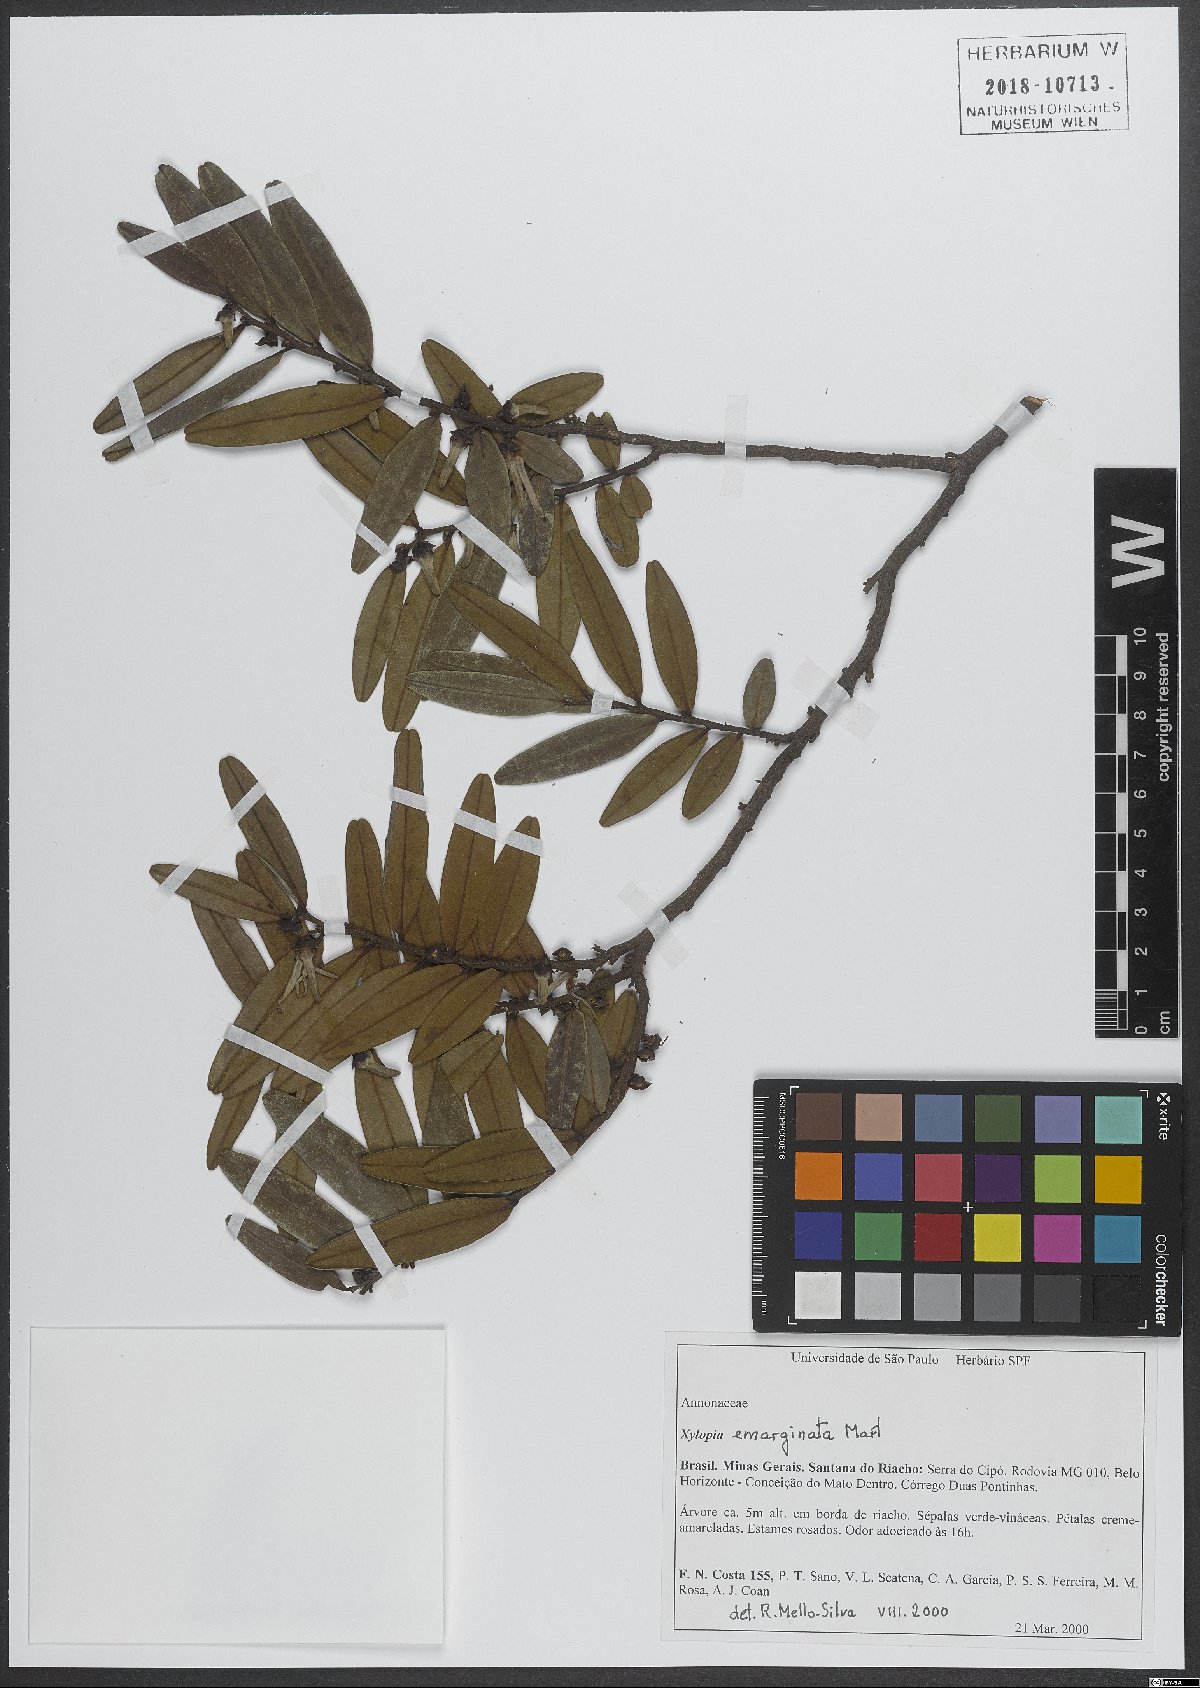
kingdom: Plantae
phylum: Tracheophyta
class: Magnoliopsida
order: Magnoliales
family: Annonaceae
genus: Xylopia
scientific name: Xylopia emarginata
